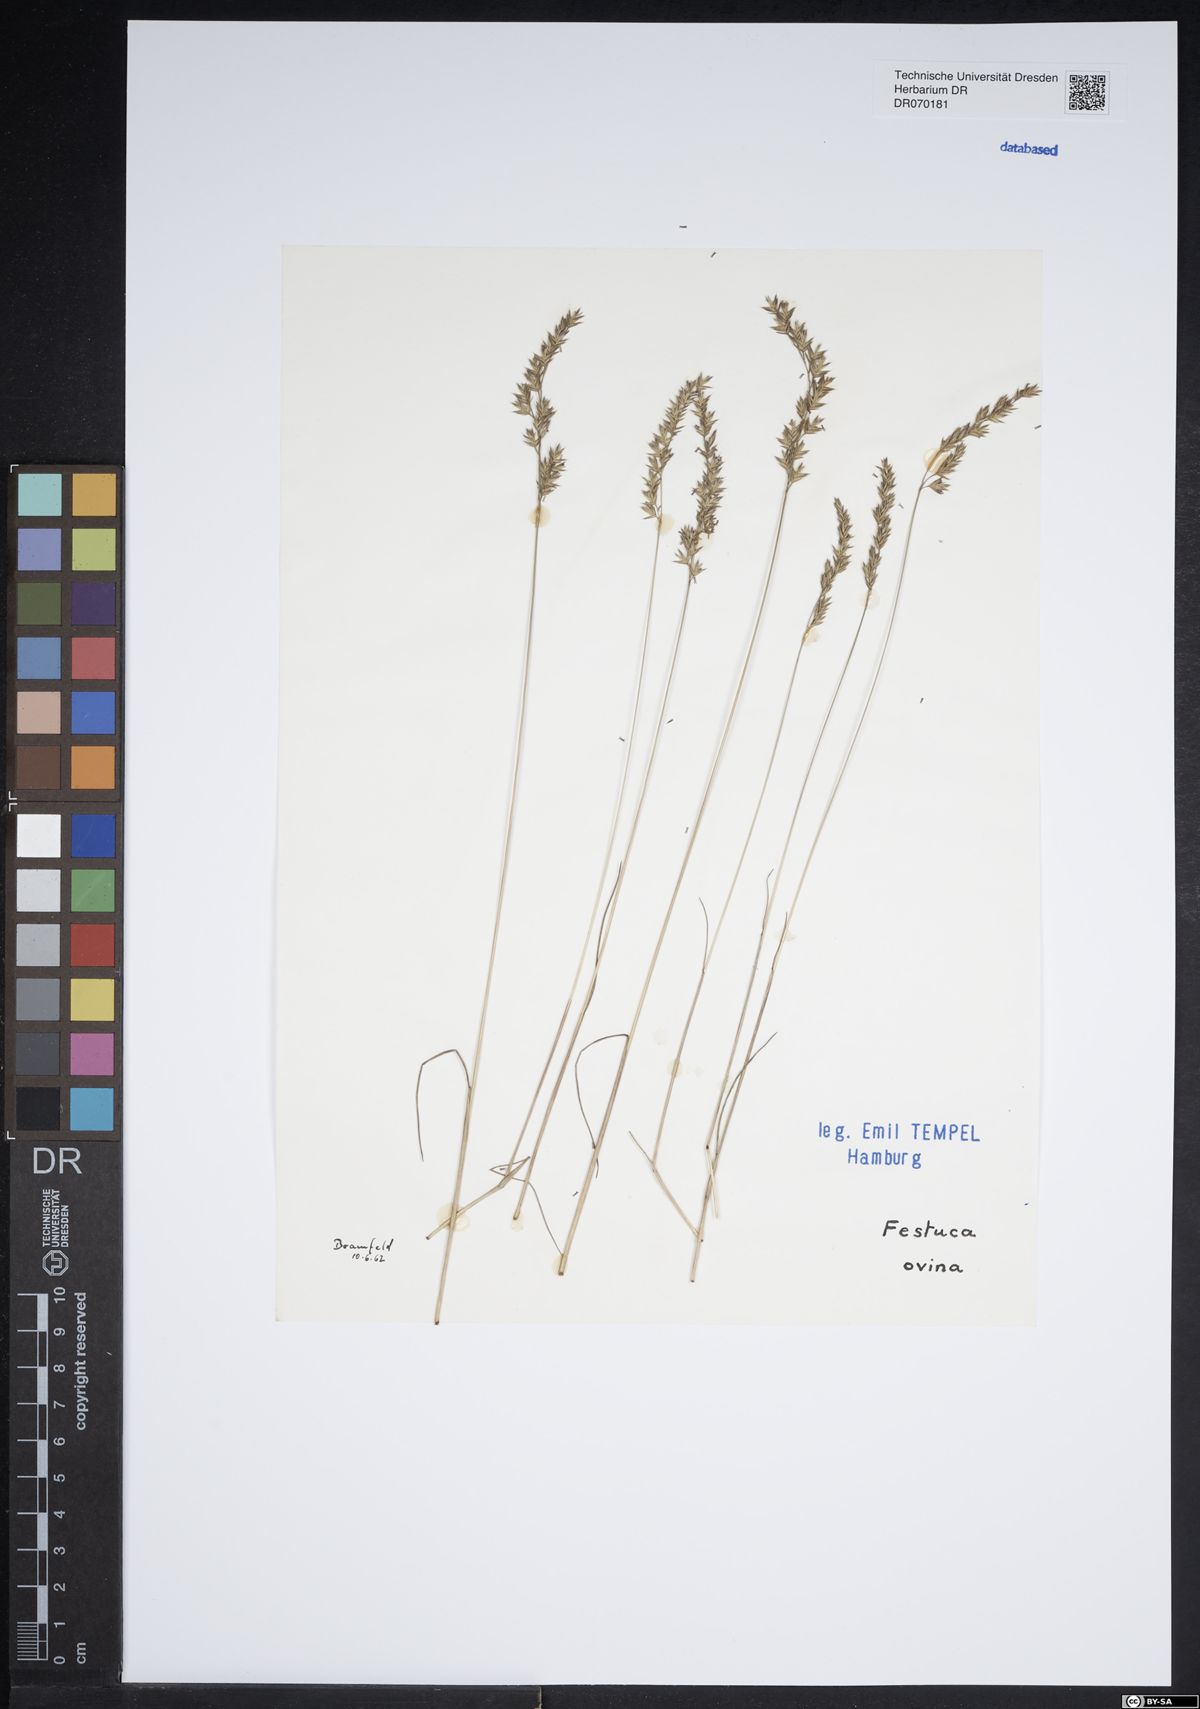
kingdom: Plantae
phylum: Tracheophyta
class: Liliopsida
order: Poales
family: Poaceae
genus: Festuca
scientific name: Festuca ovina
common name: Sheep fescue
